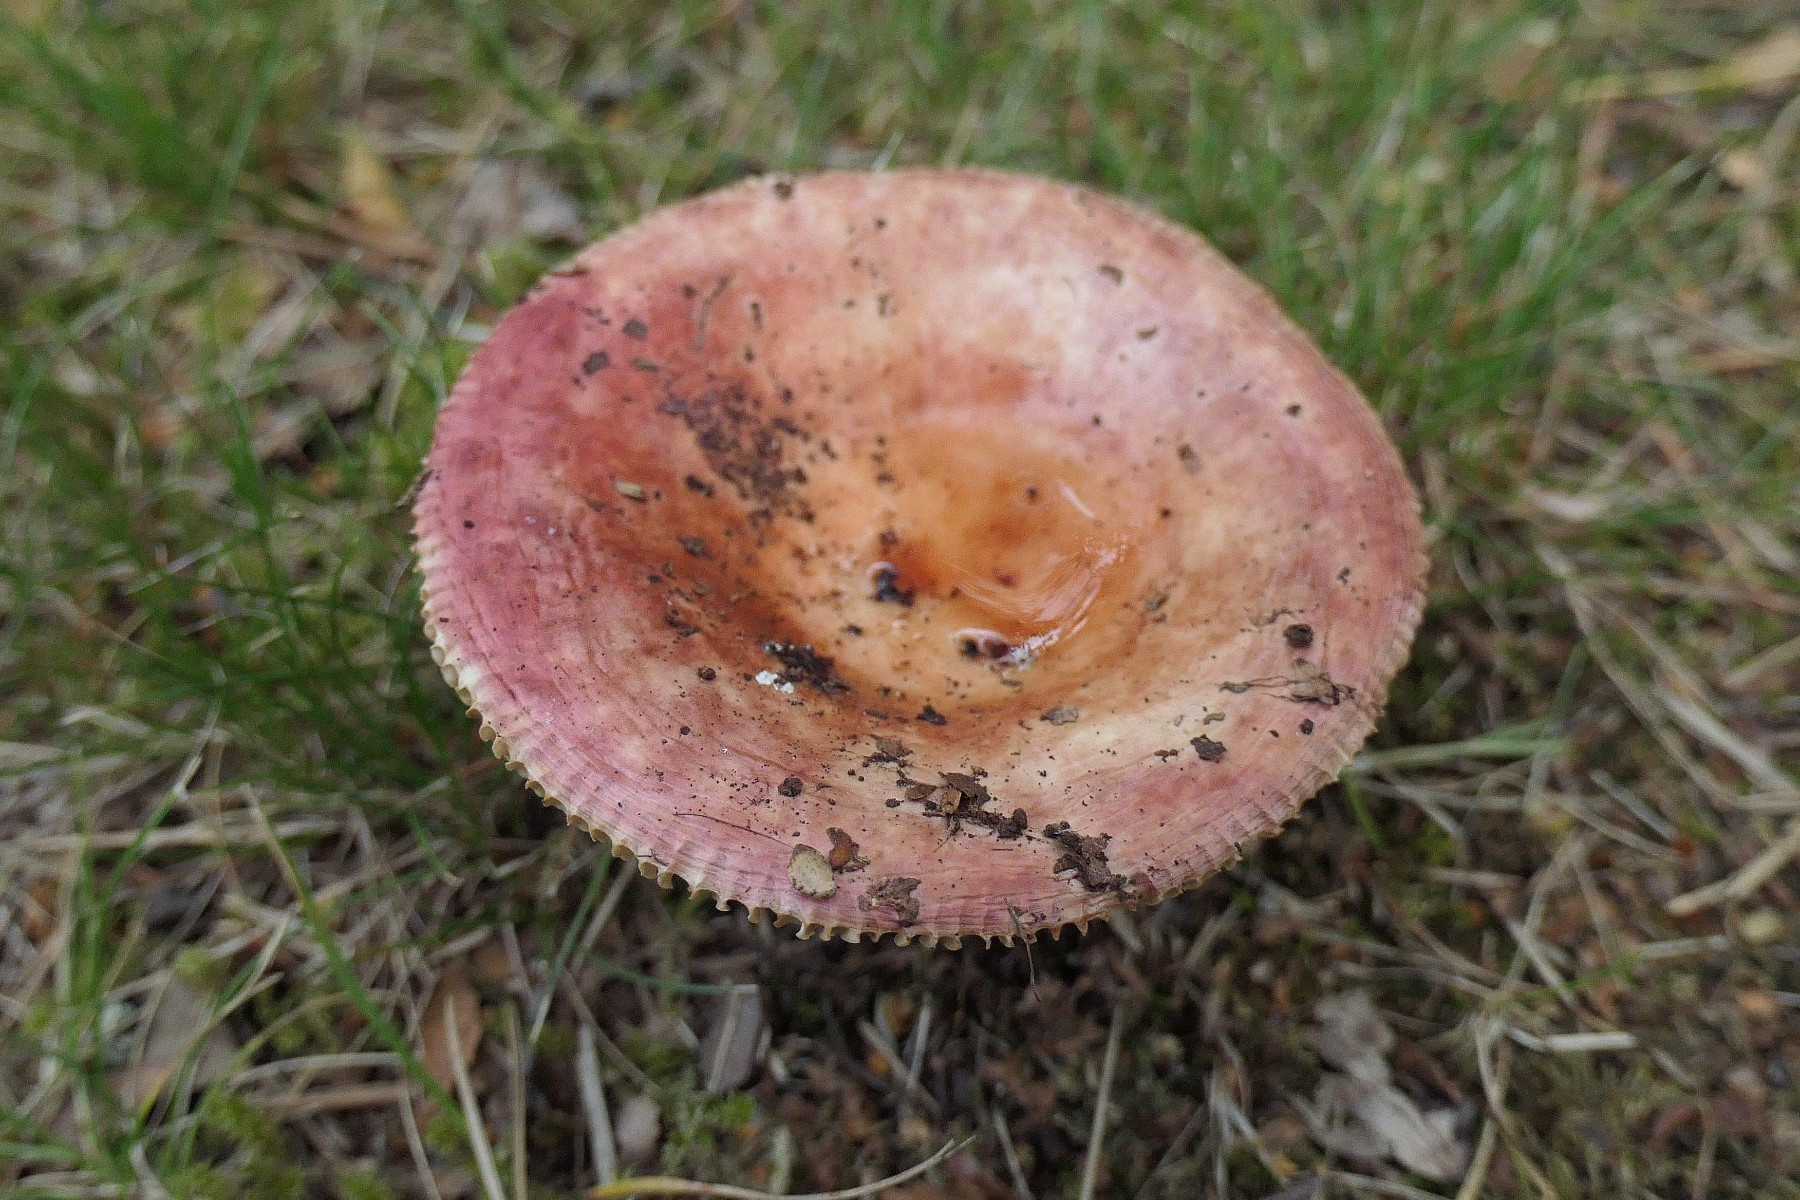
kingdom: Fungi
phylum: Basidiomycota
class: Agaricomycetes
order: Russulales
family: Russulaceae
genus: Russula
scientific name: Russula velenovskyi
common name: orangerød skørhat
